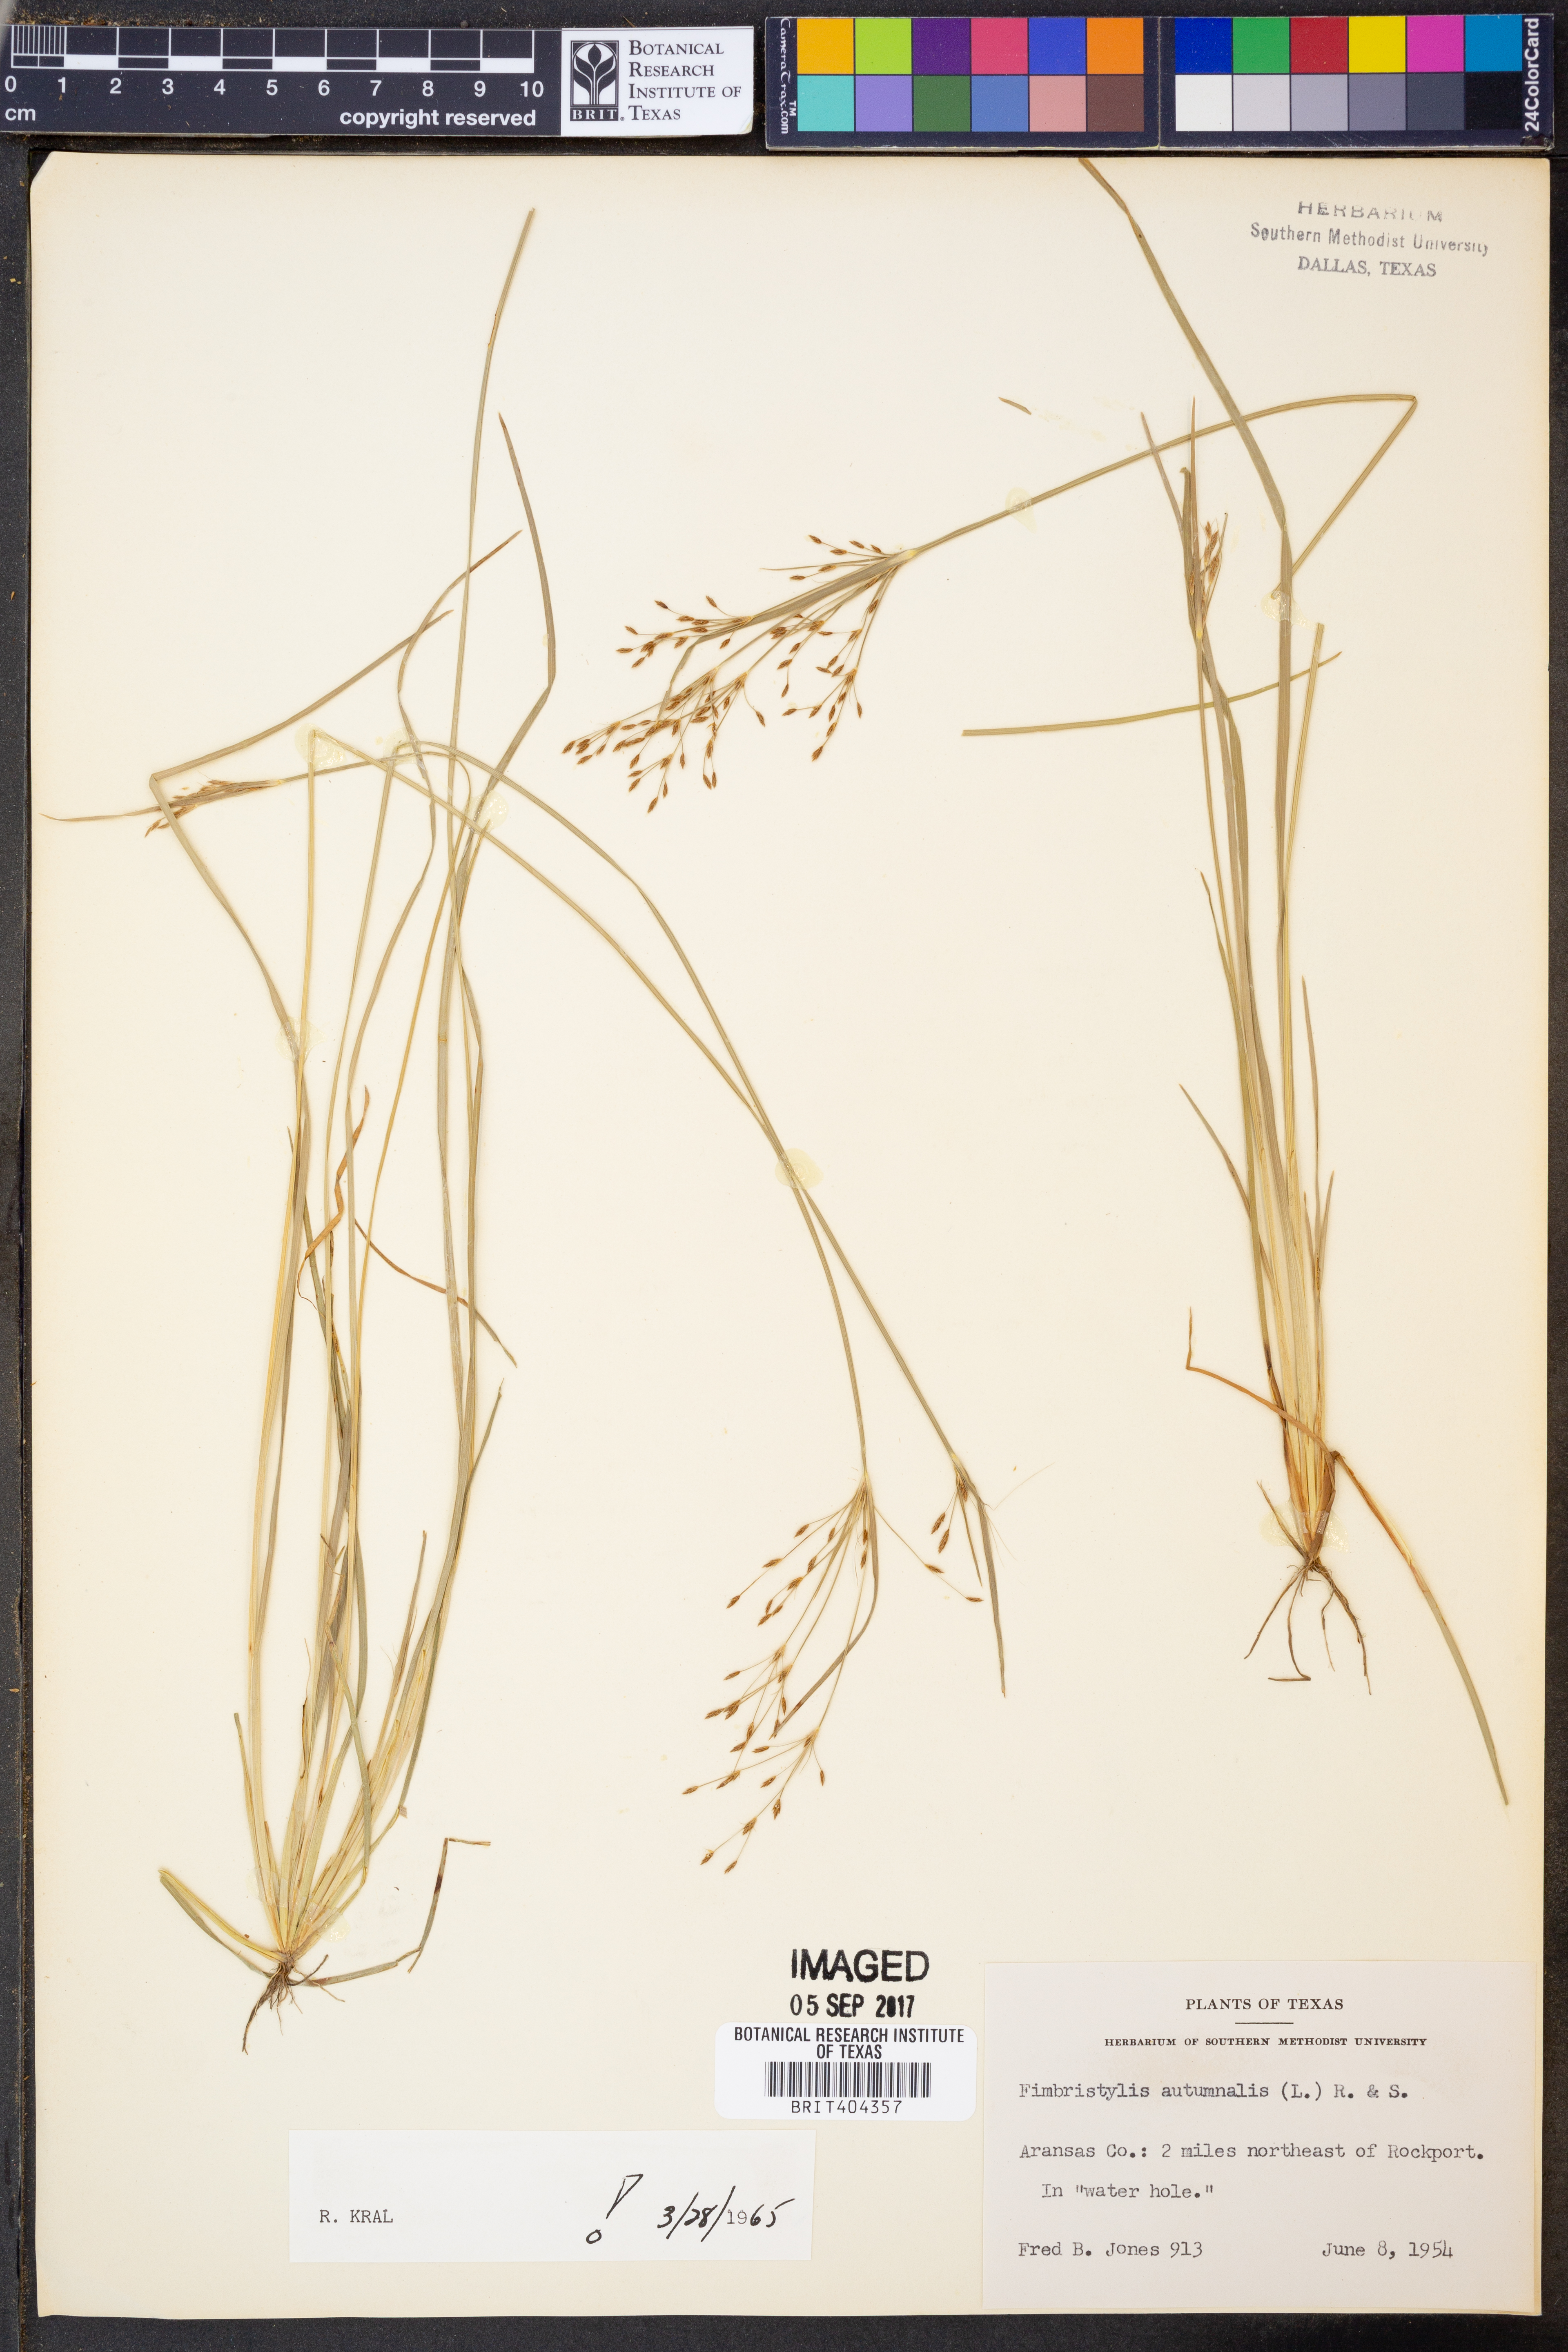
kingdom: Plantae
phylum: Tracheophyta
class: Liliopsida
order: Poales
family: Cyperaceae
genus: Fimbristylis
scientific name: Fimbristylis autumnalis
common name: Slender fimbristylis
